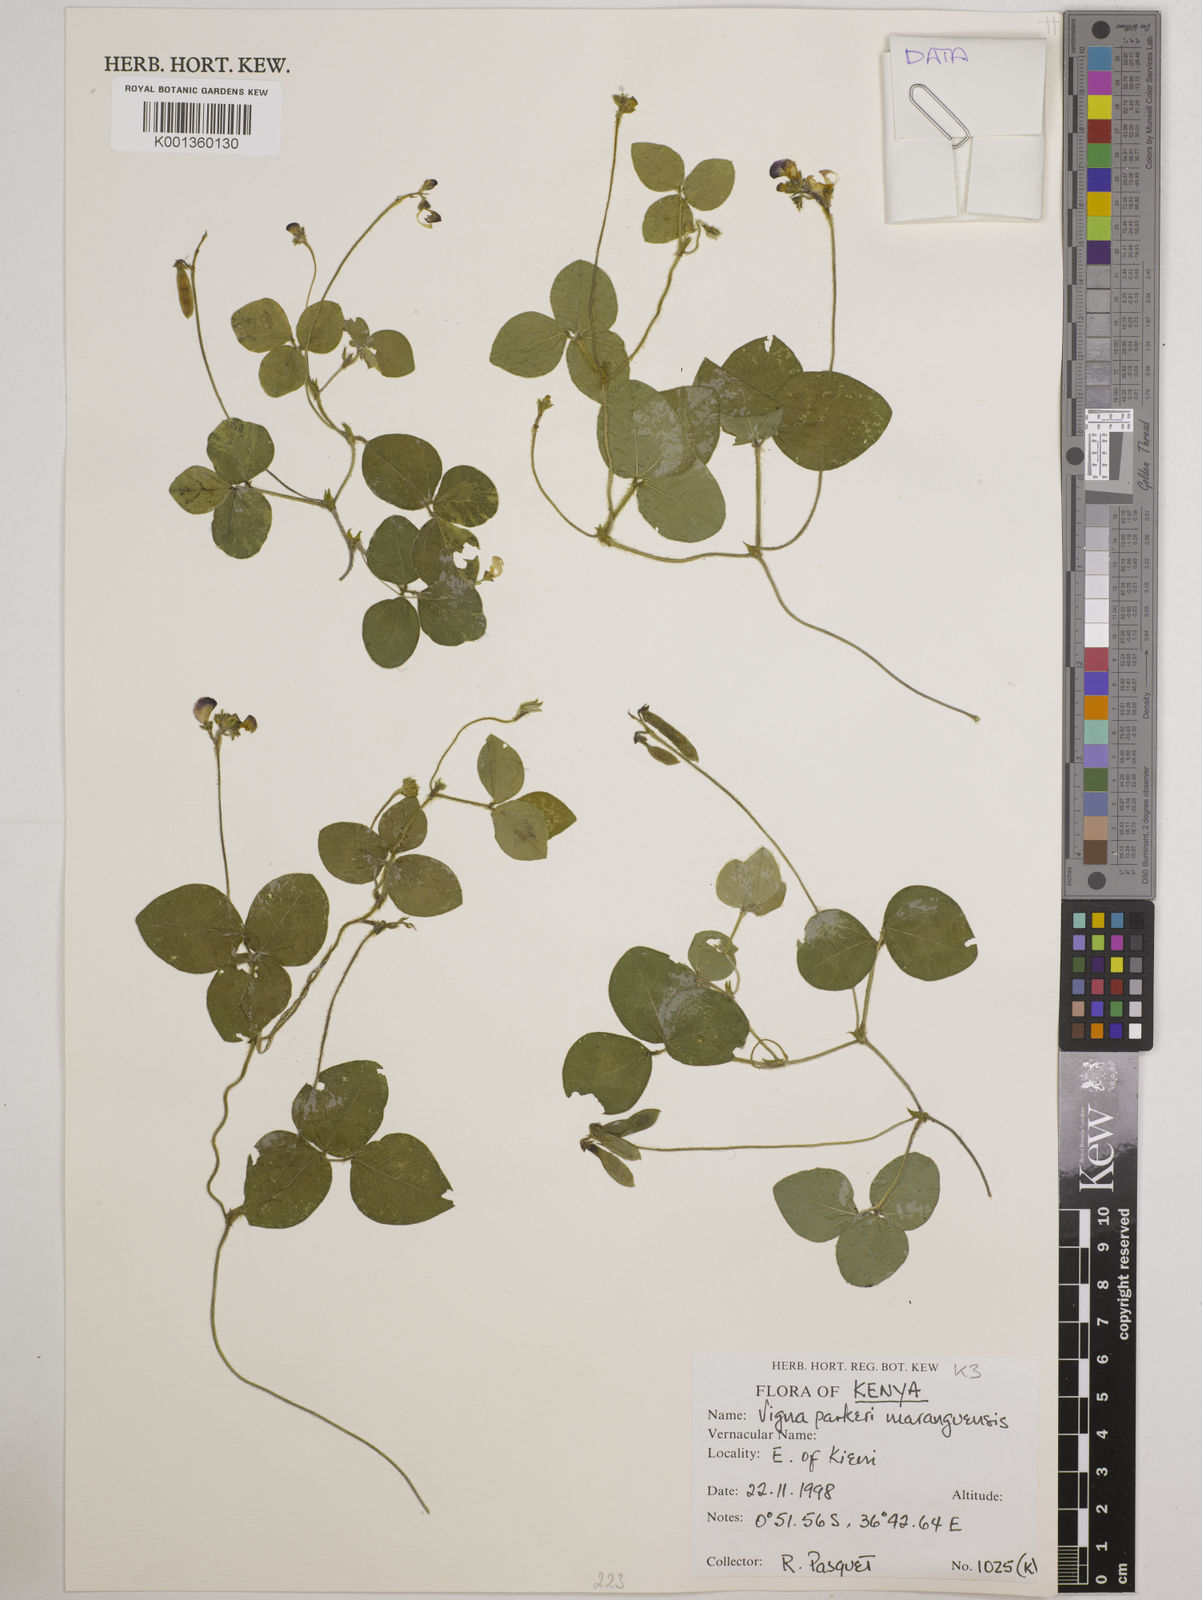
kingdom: Plantae
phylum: Tracheophyta
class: Magnoliopsida
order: Fabales
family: Fabaceae
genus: Vigna
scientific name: Vigna
